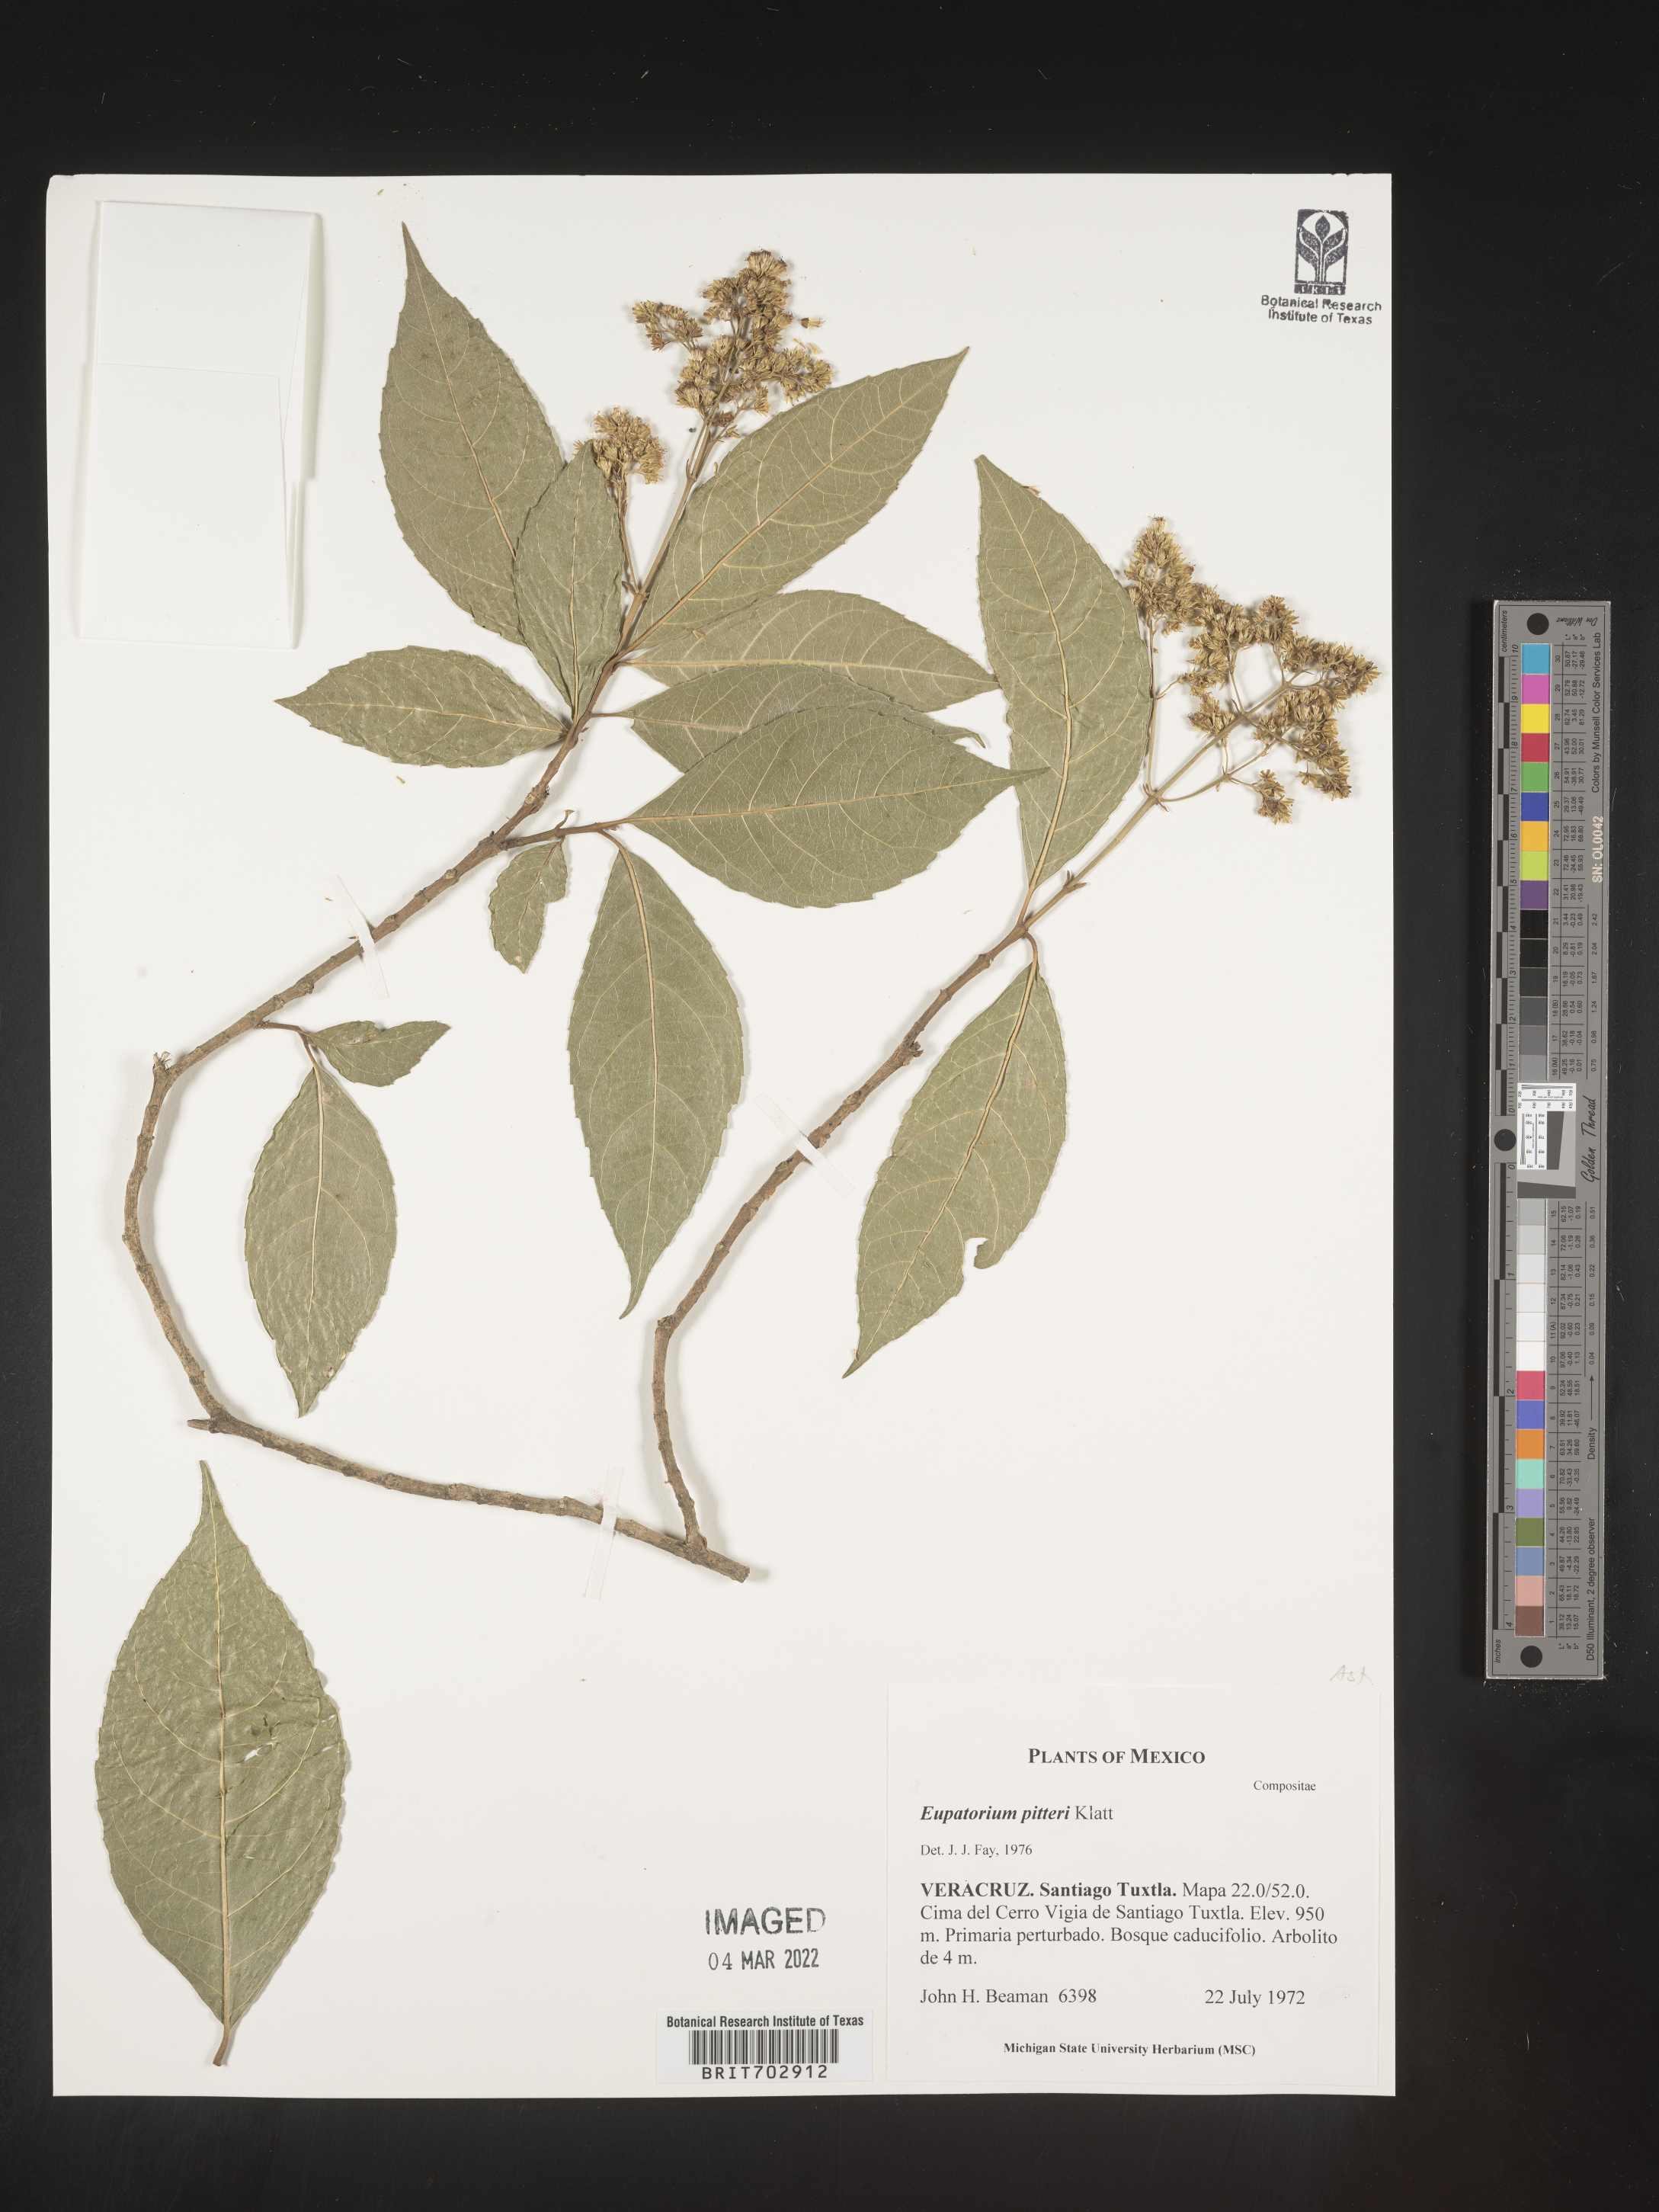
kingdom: Plantae
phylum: Tracheophyta
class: Magnoliopsida
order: Asterales
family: Asteraceae
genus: Eupatorium
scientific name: Eupatorium
